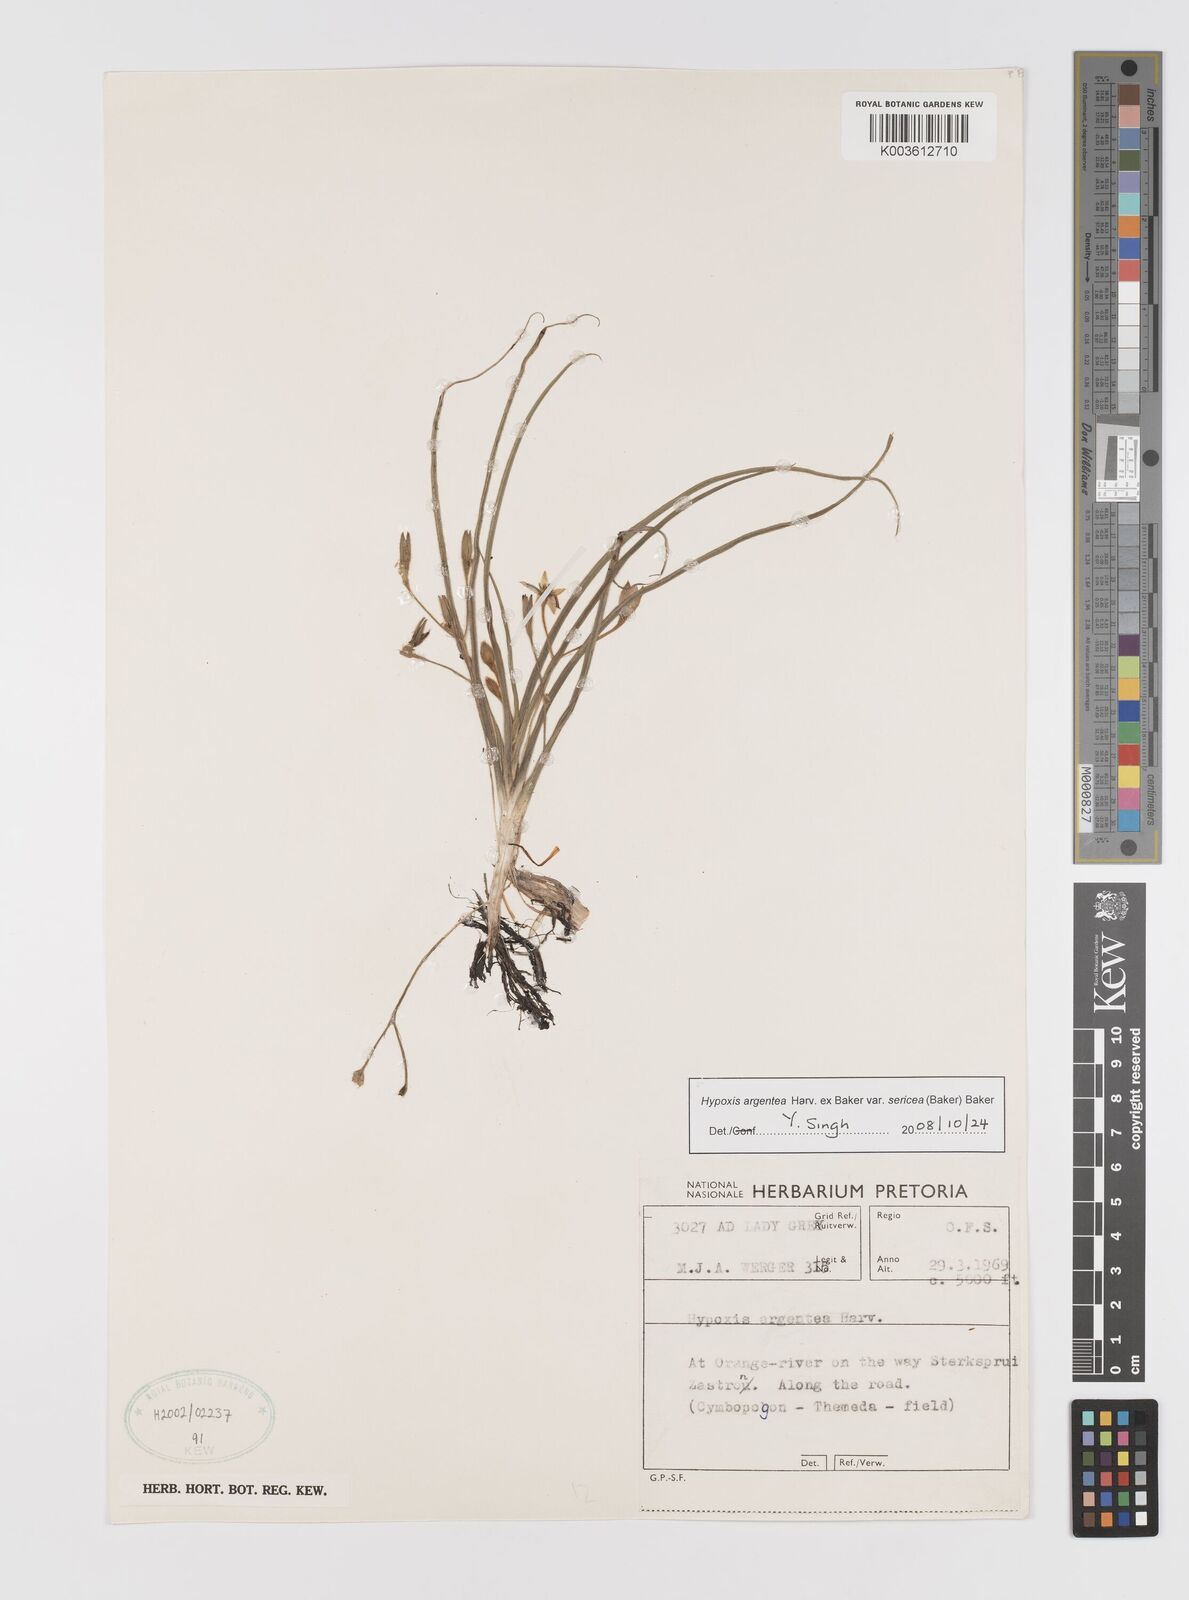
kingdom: Plantae
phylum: Tracheophyta
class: Liliopsida
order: Asparagales
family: Hypoxidaceae
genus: Hypoxis
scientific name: Hypoxis argentea
